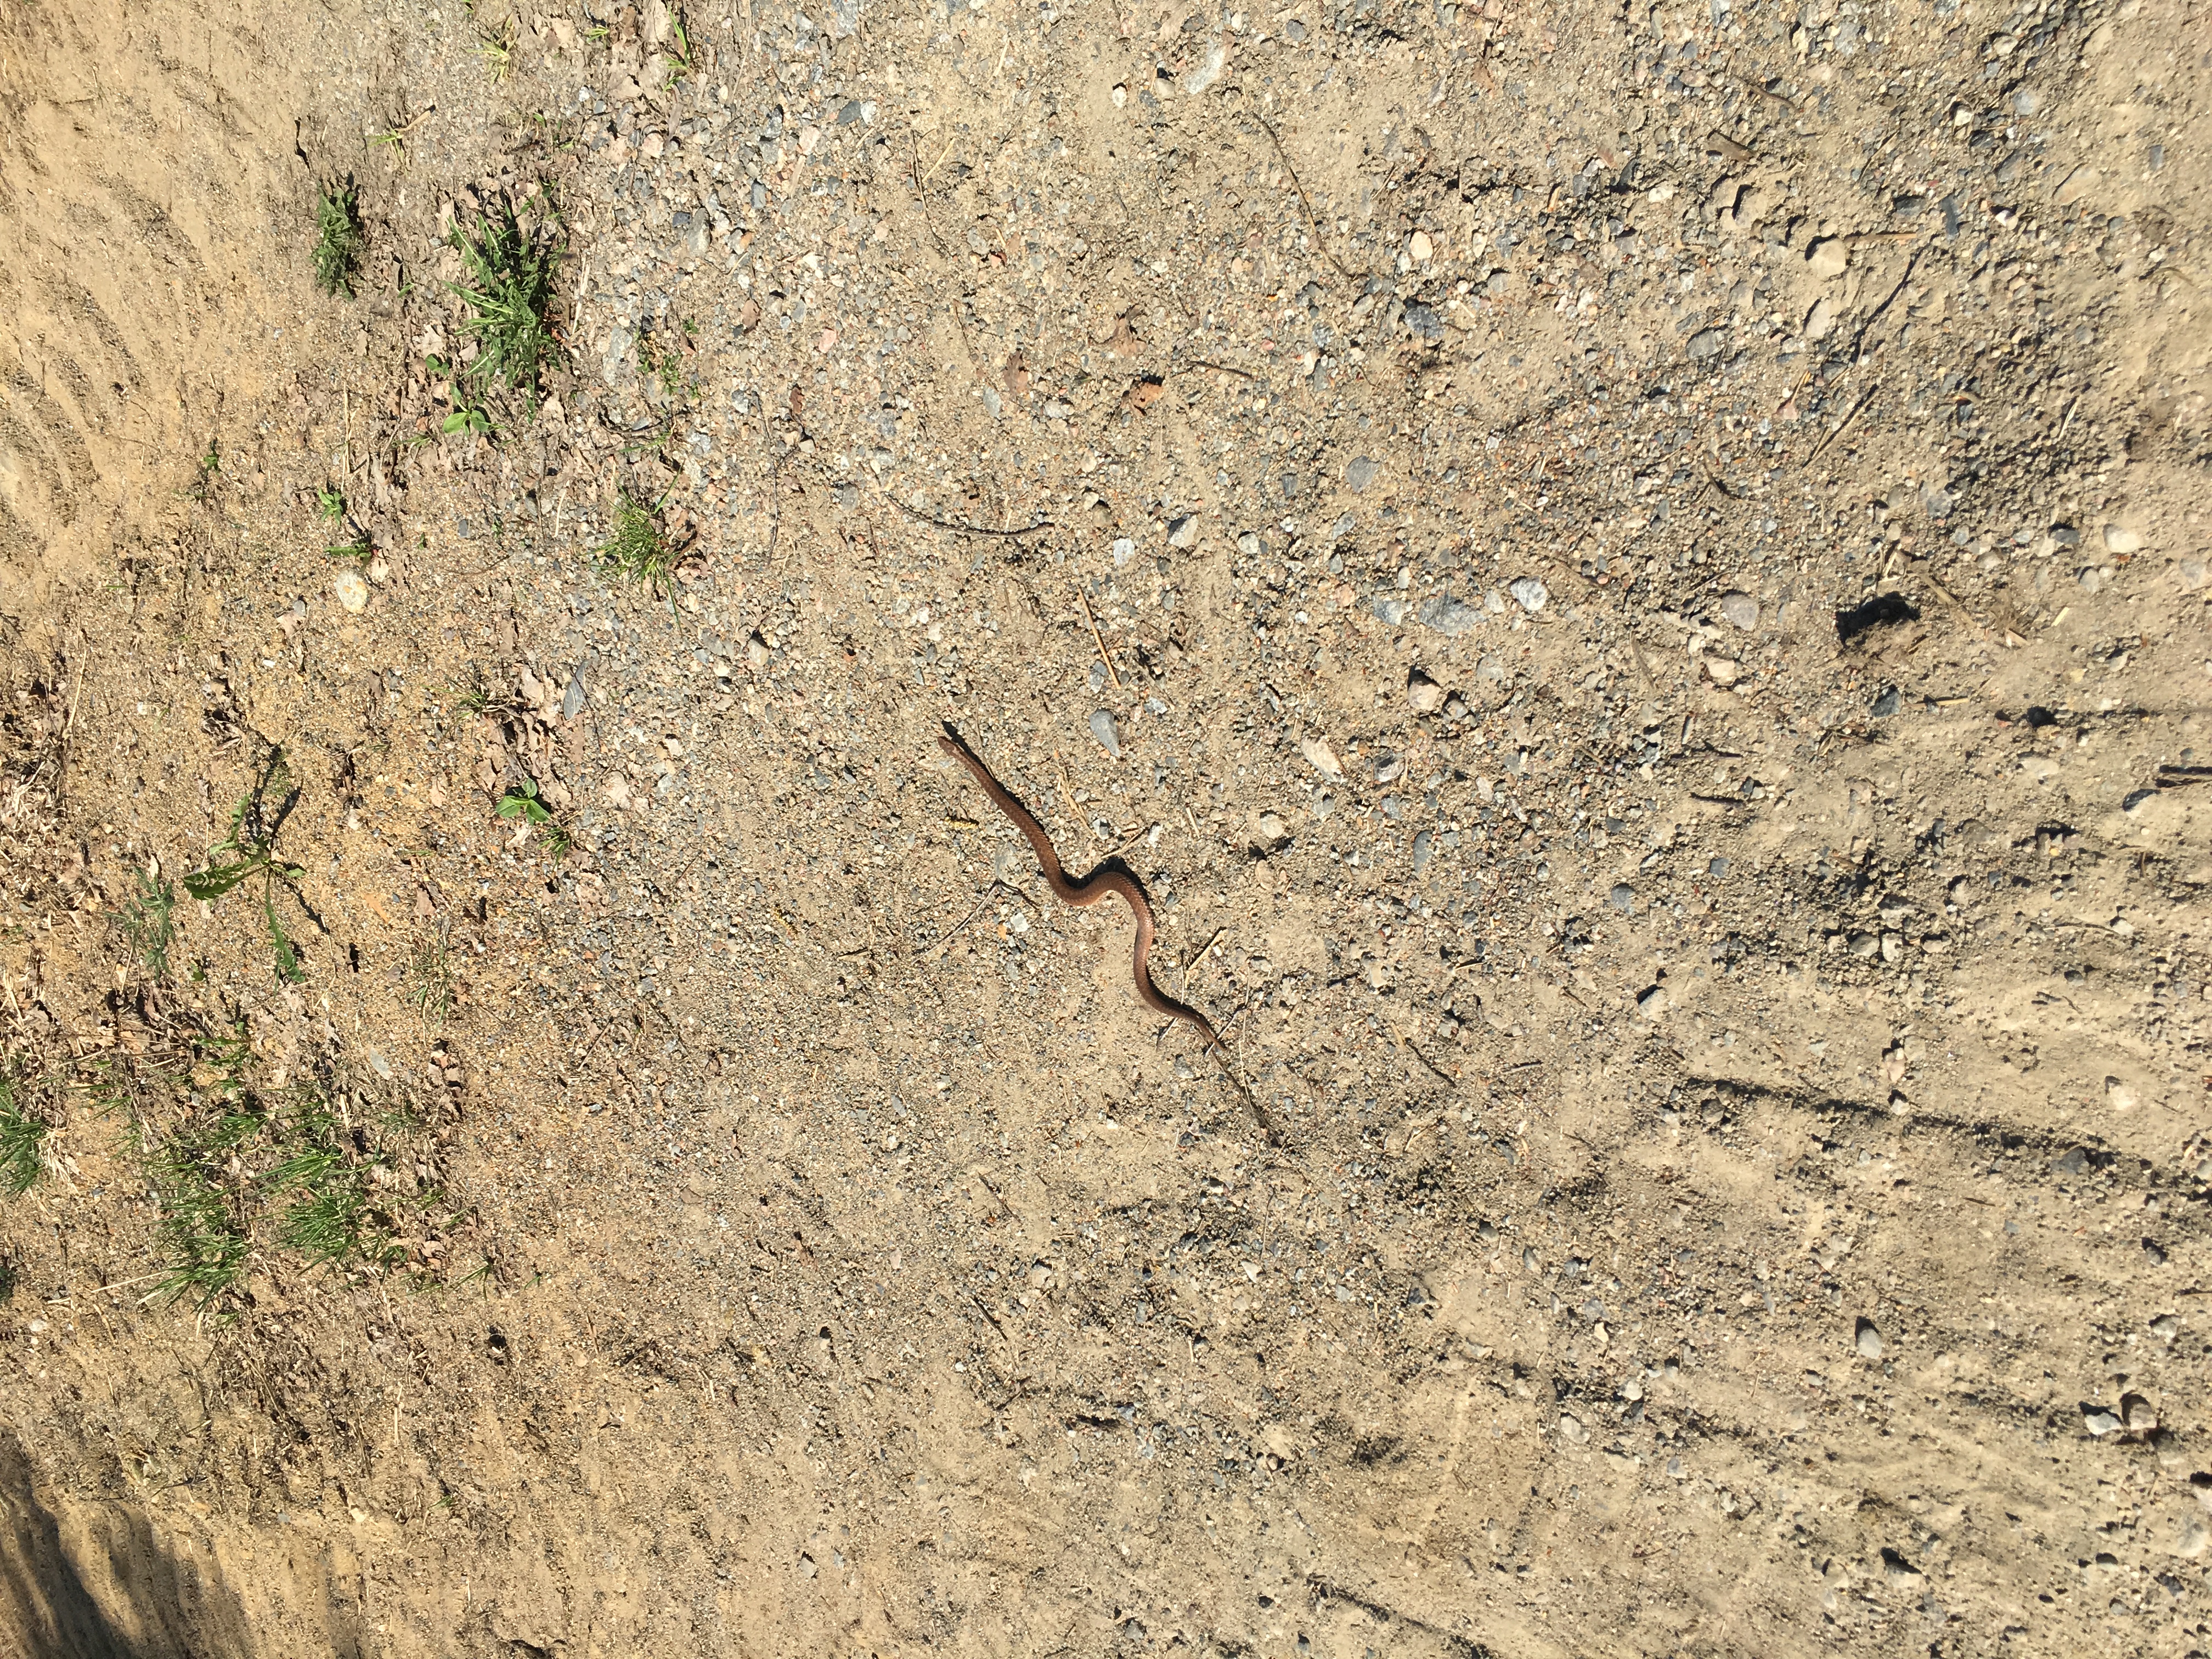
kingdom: Animalia
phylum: Chordata
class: Squamata
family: Anguidae
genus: Anguis
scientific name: Anguis colchica
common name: Slow worm
